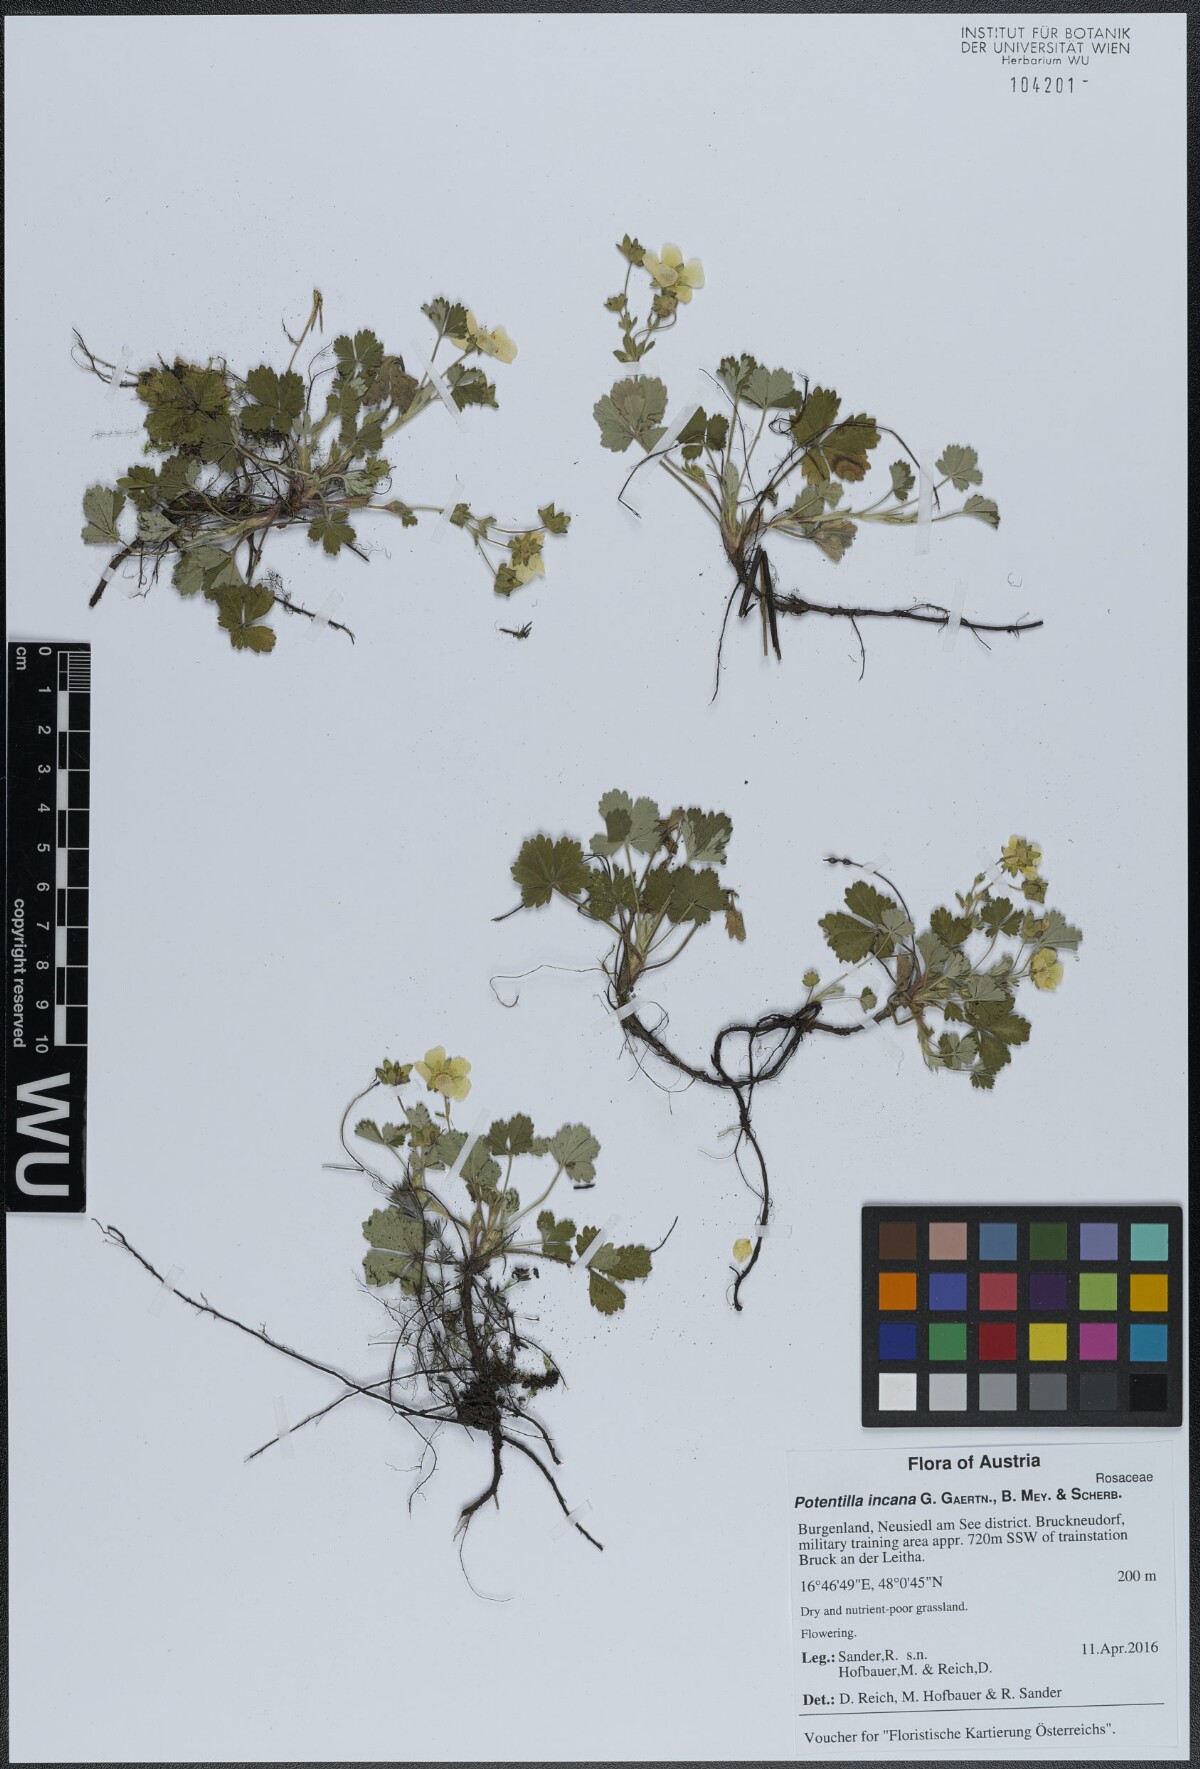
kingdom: Plantae
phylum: Tracheophyta
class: Magnoliopsida
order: Rosales
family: Rosaceae
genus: Potentilla
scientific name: Potentilla cinerea
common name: Ashy cinquefoil
